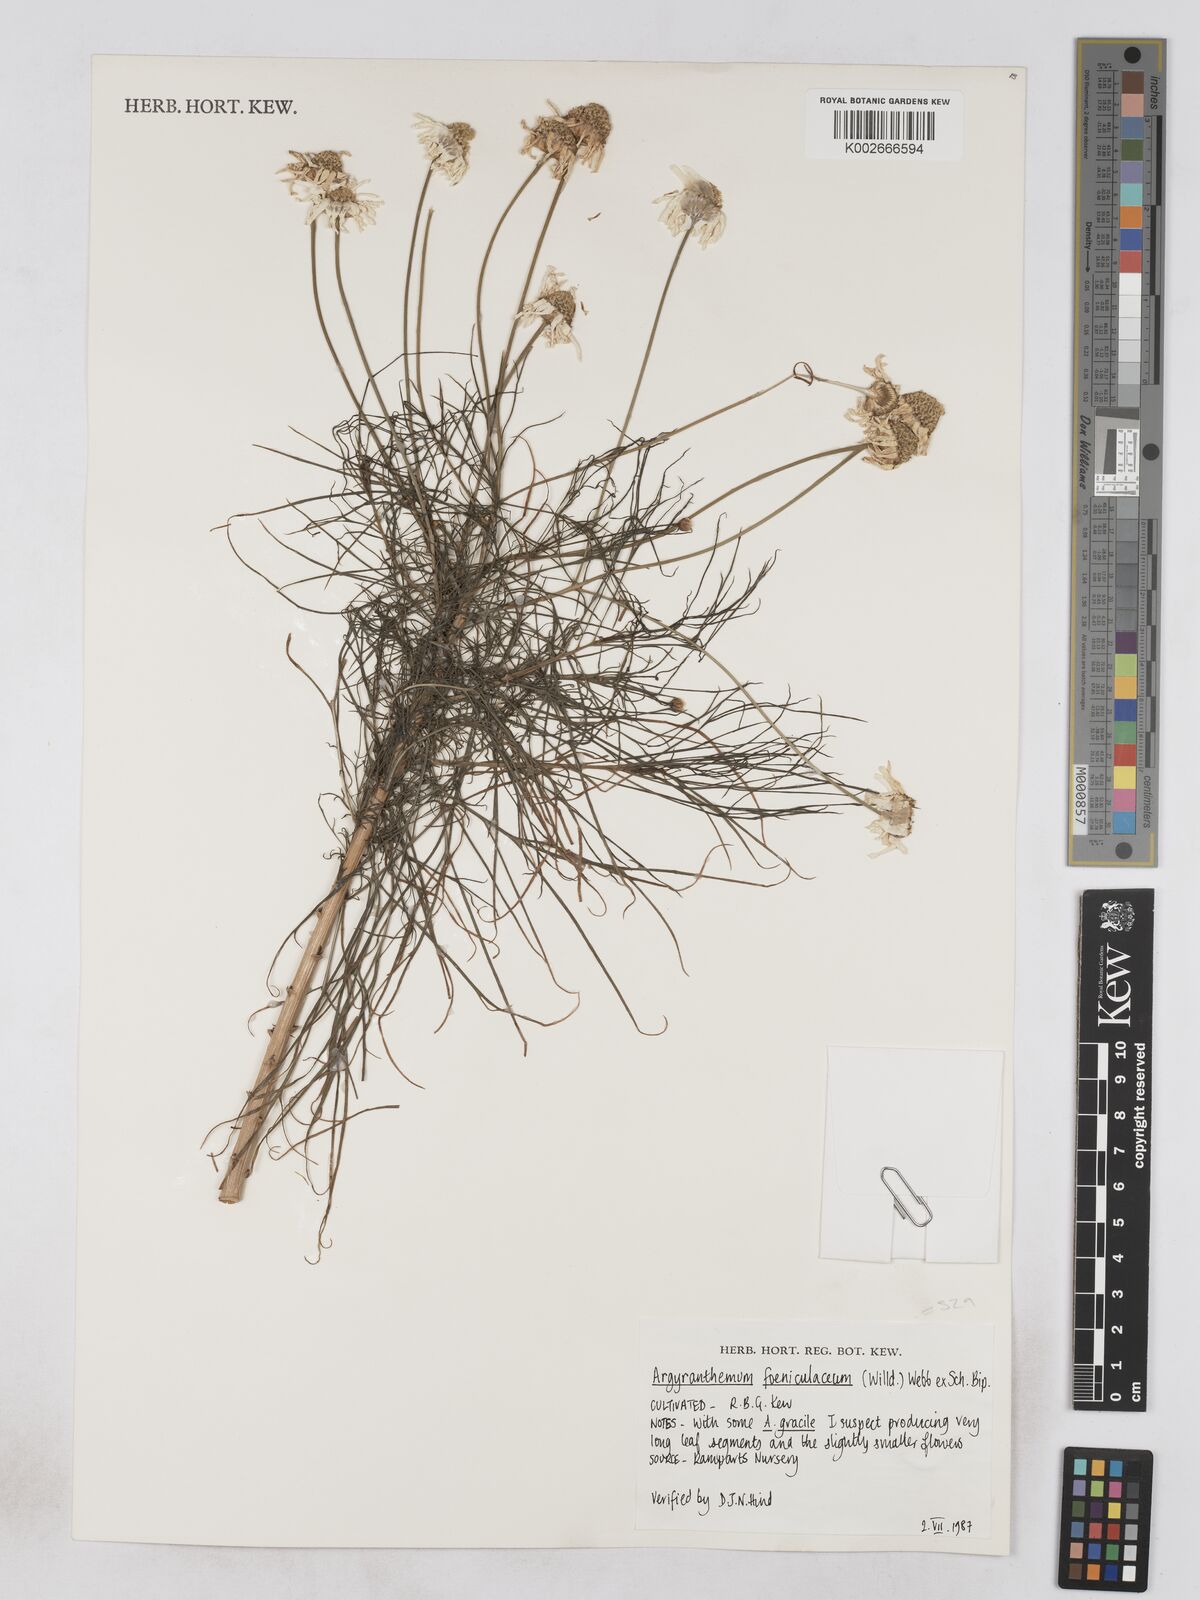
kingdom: Plantae
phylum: Tracheophyta
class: Magnoliopsida
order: Asterales
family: Asteraceae
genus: Argyranthemum
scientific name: Argyranthemum foeniculaceum
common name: Canary island marguerite
